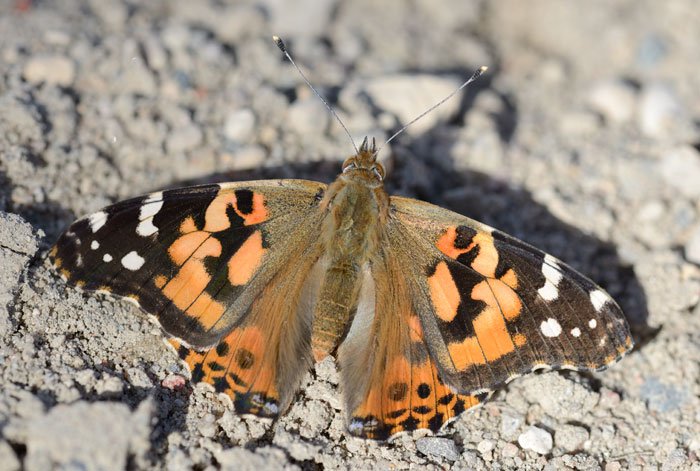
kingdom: Animalia
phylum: Arthropoda
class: Insecta
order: Lepidoptera
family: Nymphalidae
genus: Vanessa
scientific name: Vanessa cardui
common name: Painted Lady
